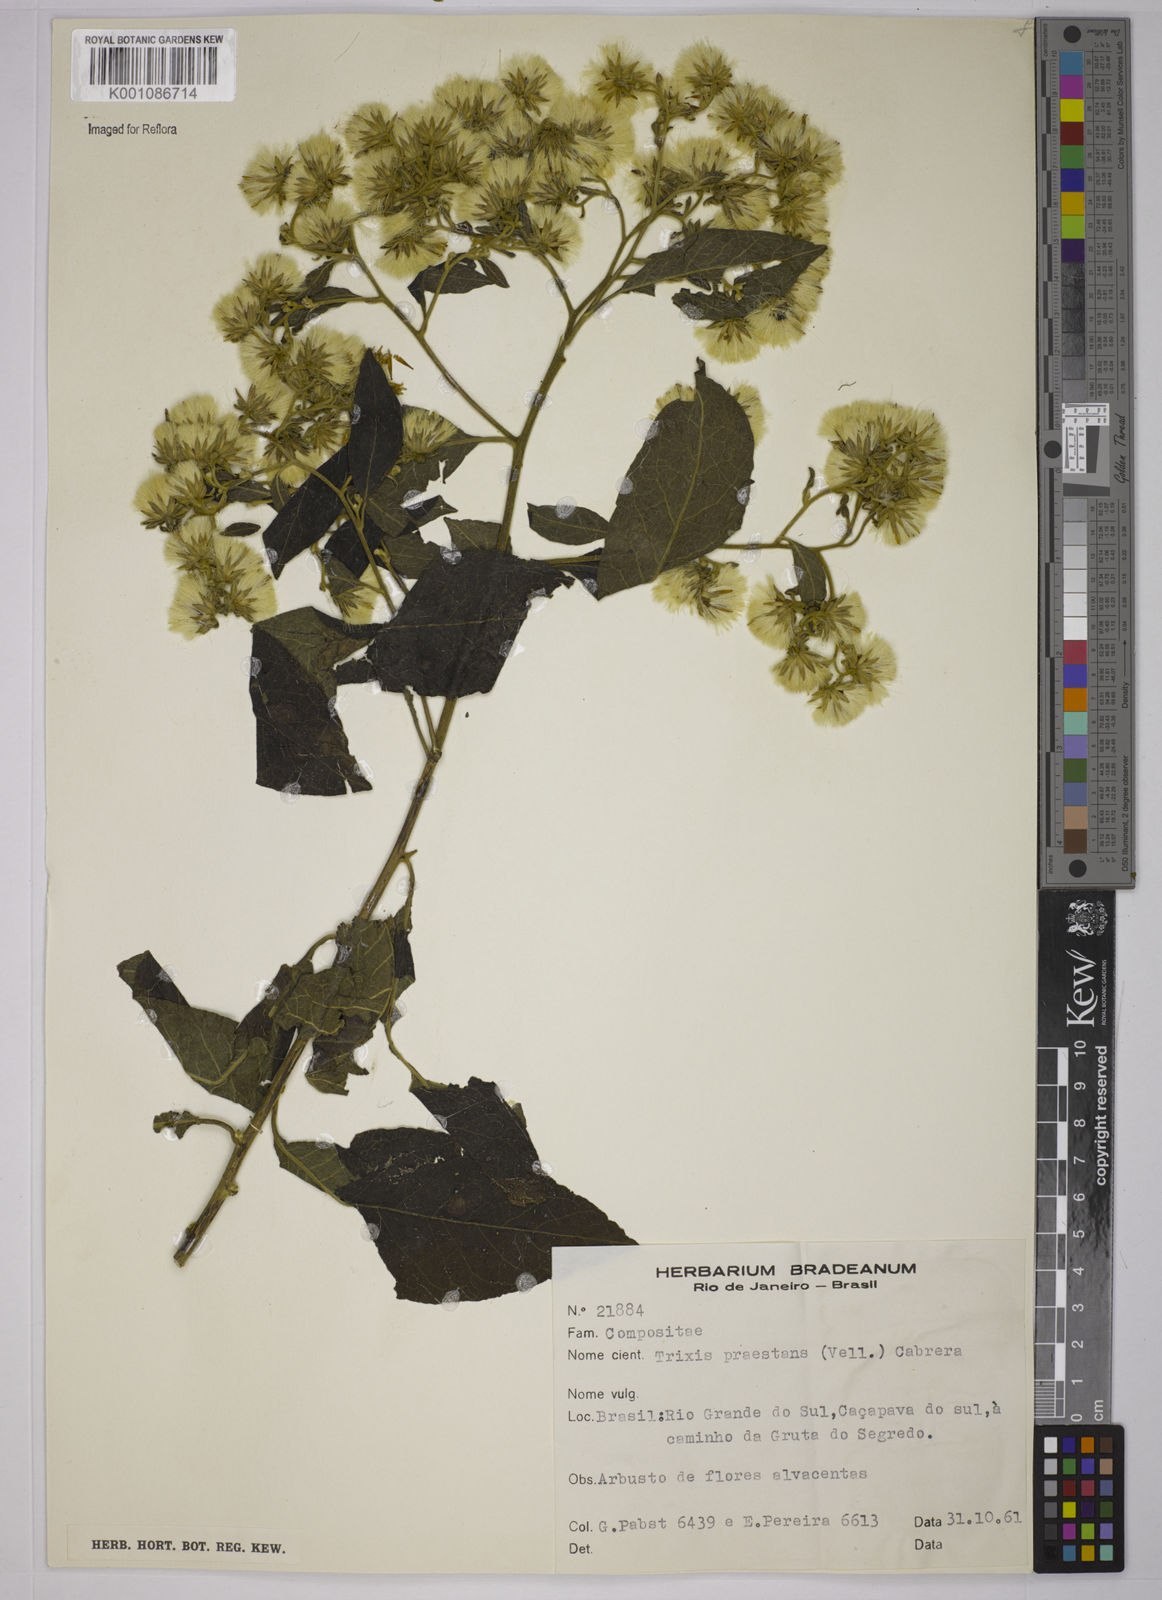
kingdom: Plantae
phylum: Tracheophyta
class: Magnoliopsida
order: Asterales
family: Asteraceae
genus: Trixis
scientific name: Trixis praestans
